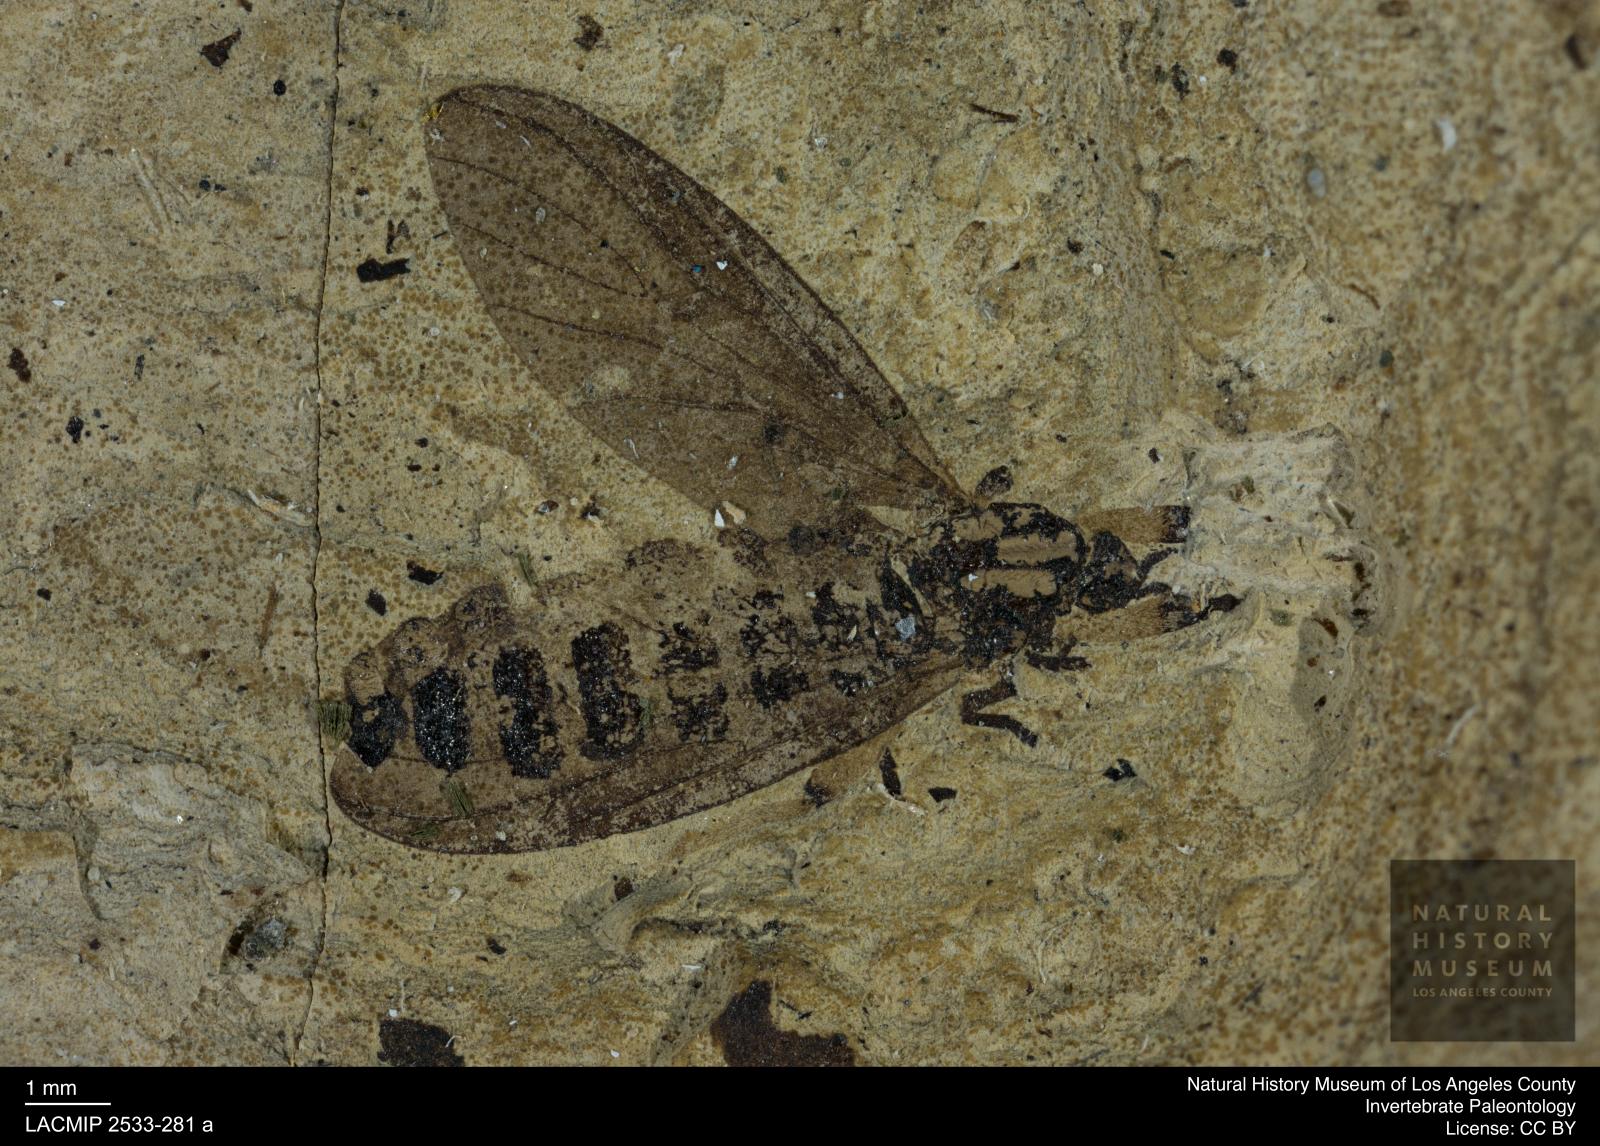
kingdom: Animalia
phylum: Arthropoda
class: Insecta
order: Diptera
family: Bibionidae
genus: Plecia
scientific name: Plecia luctuosa
